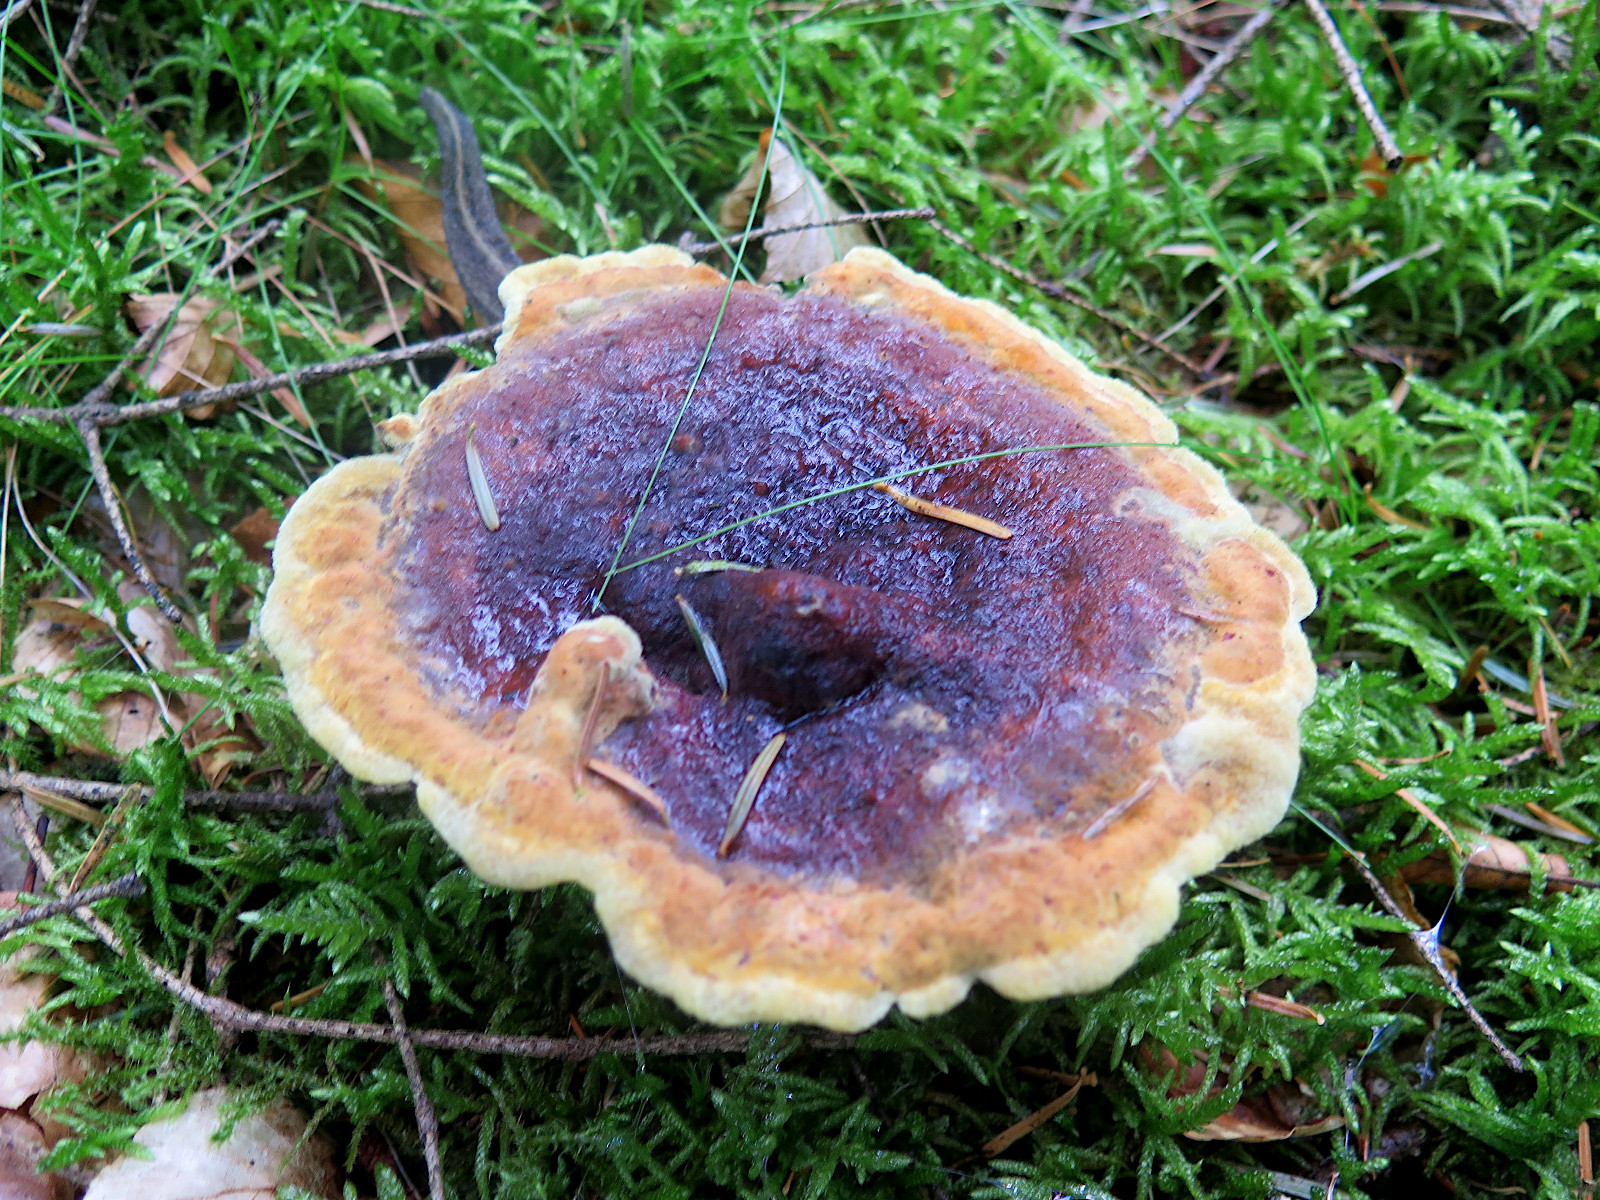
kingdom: Fungi
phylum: Basidiomycota
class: Agaricomycetes
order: Polyporales
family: Laetiporaceae
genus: Phaeolus
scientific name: Phaeolus schweinitzii
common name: brunporesvamp
